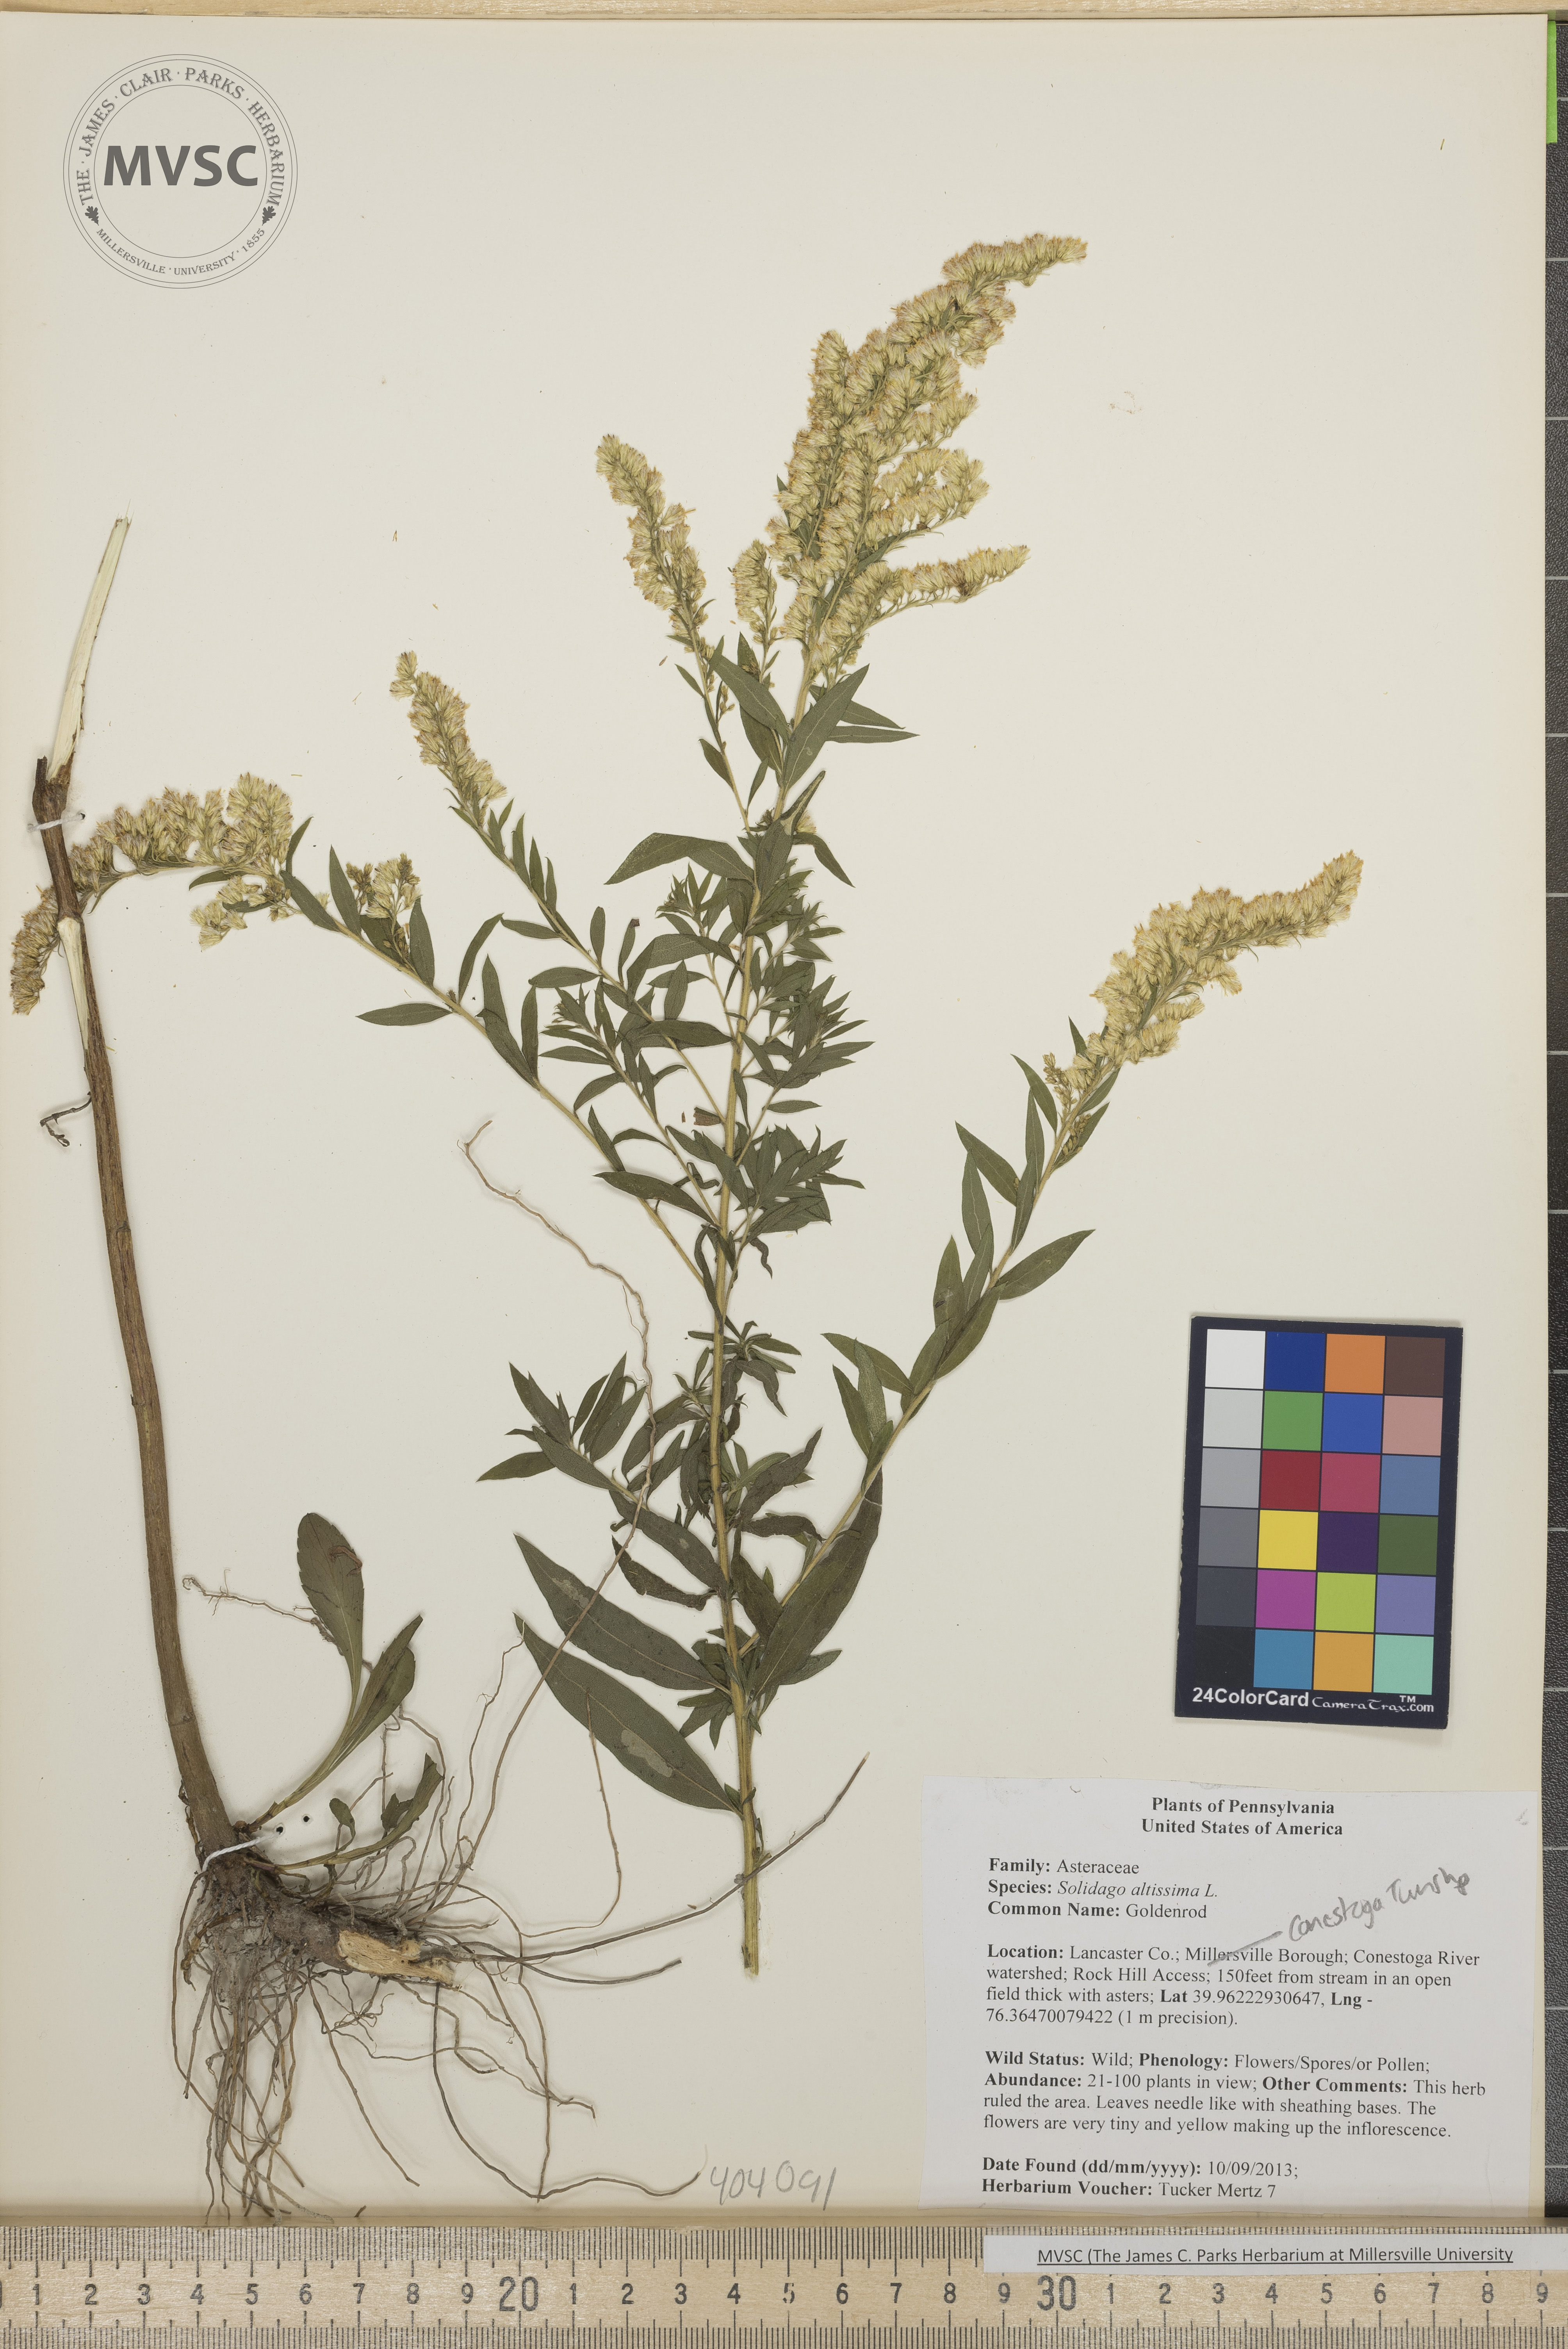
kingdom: Plantae
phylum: Tracheophyta
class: Magnoliopsida
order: Asterales
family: Asteraceae
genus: Solidago
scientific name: Solidago altissima
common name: Goldenrod
